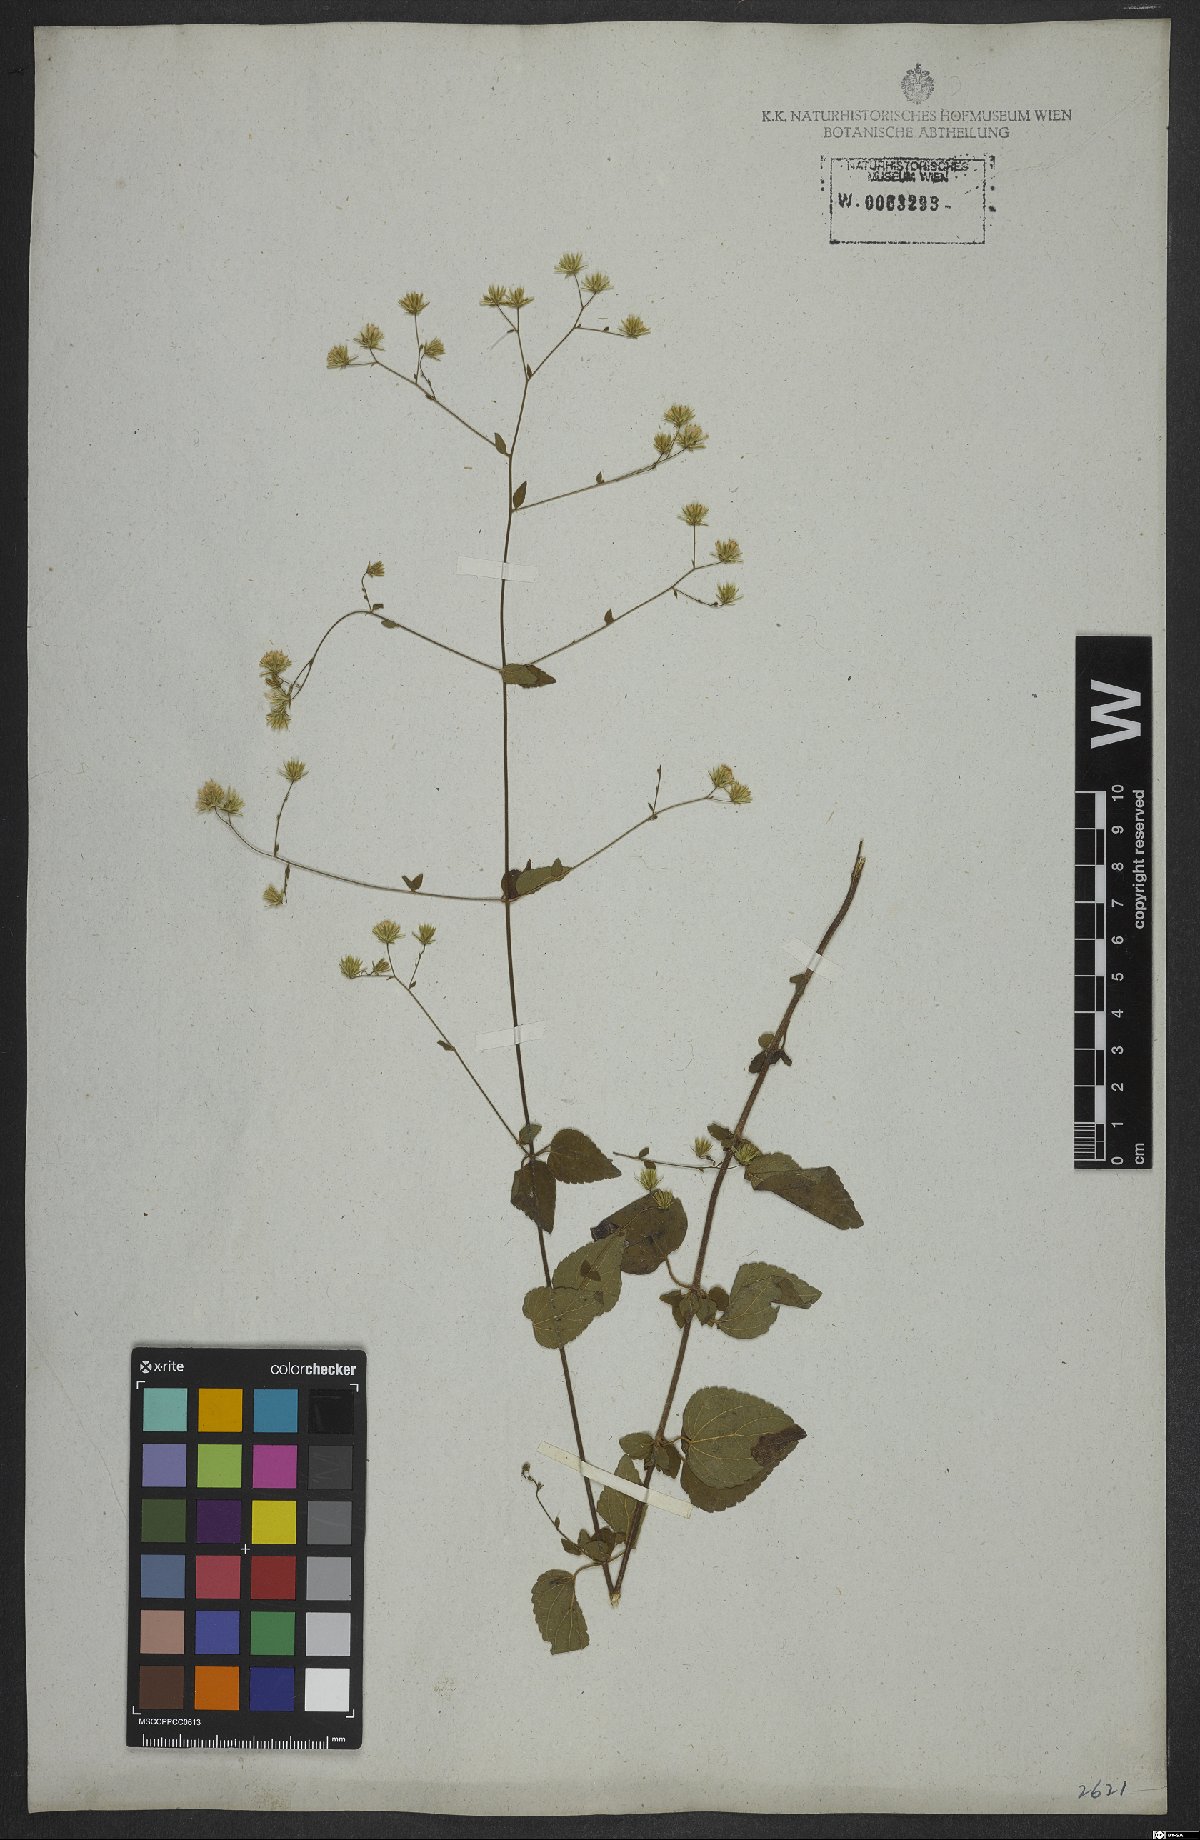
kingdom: Plantae
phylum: Tracheophyta
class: Magnoliopsida
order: Asterales
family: Asteraceae
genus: Fleischmannia
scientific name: Fleischmannia microstemon
